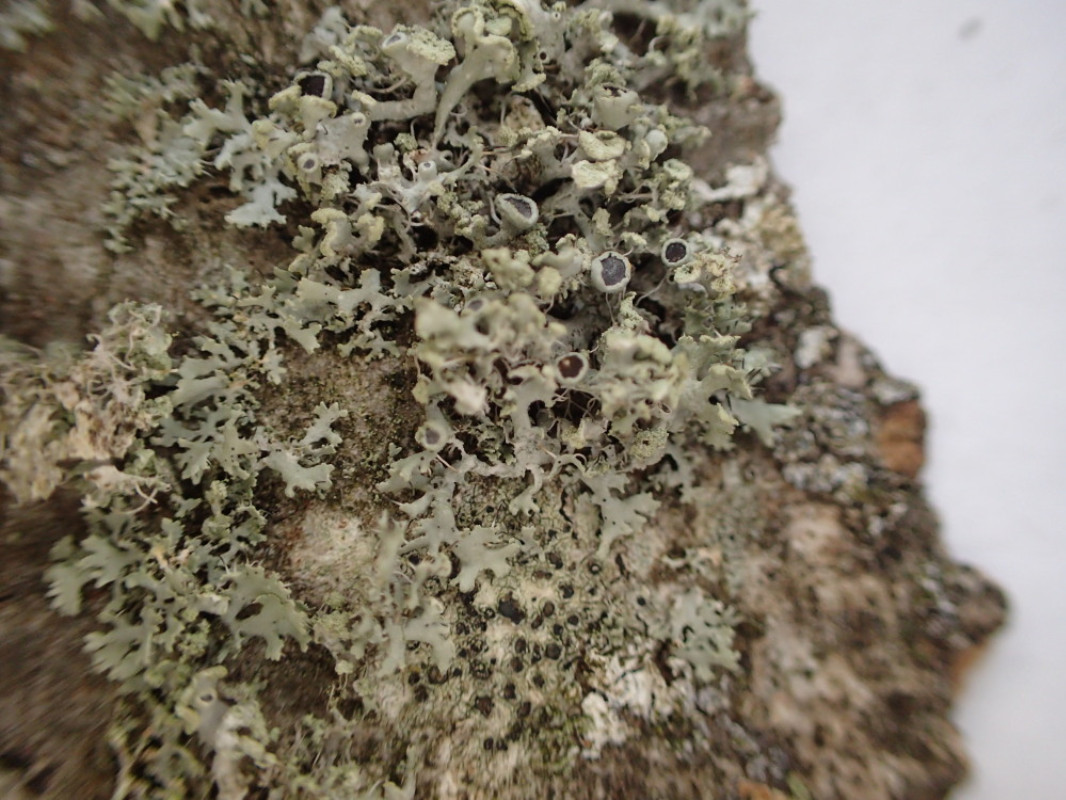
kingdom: Fungi
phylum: Ascomycota
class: Lecanoromycetes
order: Caliciales
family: Physciaceae
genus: Physcia
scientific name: Physcia tenella
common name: spæd rosetlav
